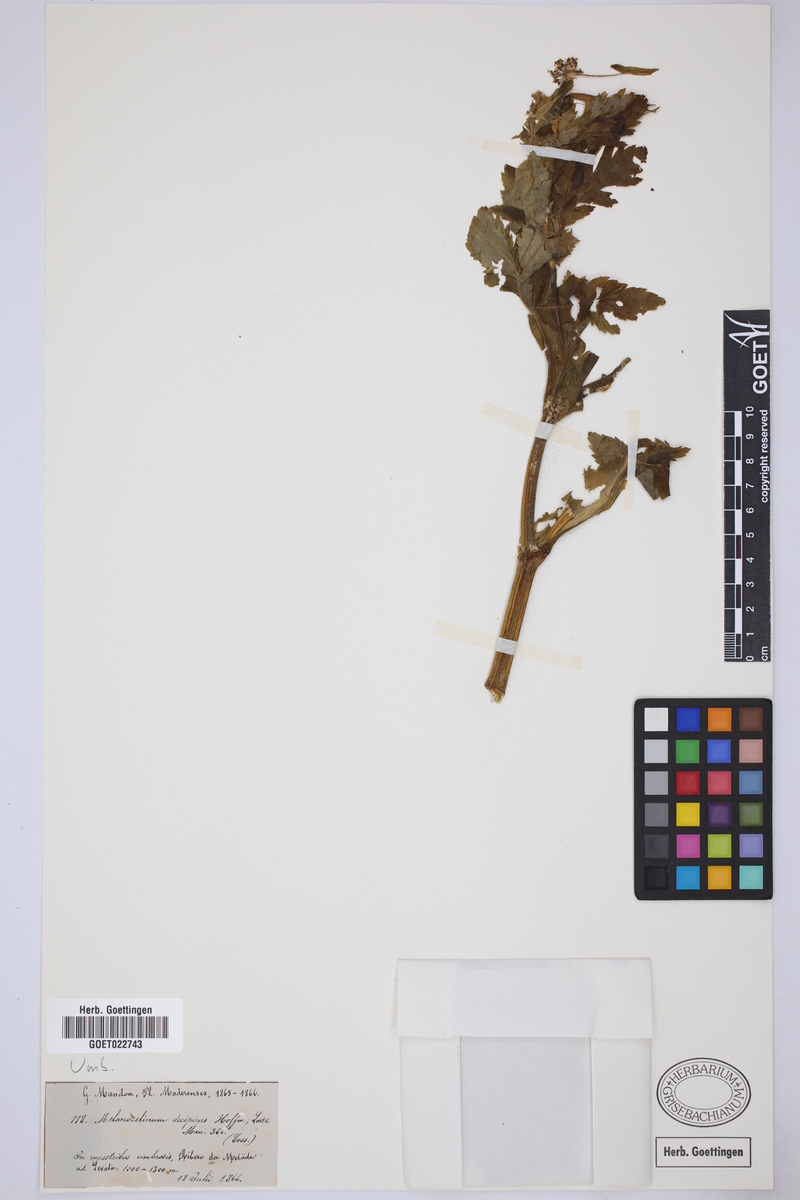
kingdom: Plantae
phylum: Tracheophyta
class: Magnoliopsida
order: Apiales
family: Apiaceae
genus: Daucus
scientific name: Daucus decipiens
